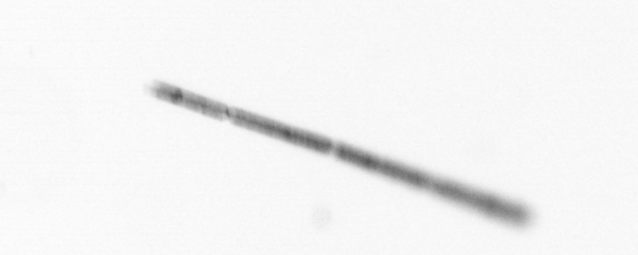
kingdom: Chromista
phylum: Ochrophyta
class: Bacillariophyceae
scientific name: Bacillariophyceae
